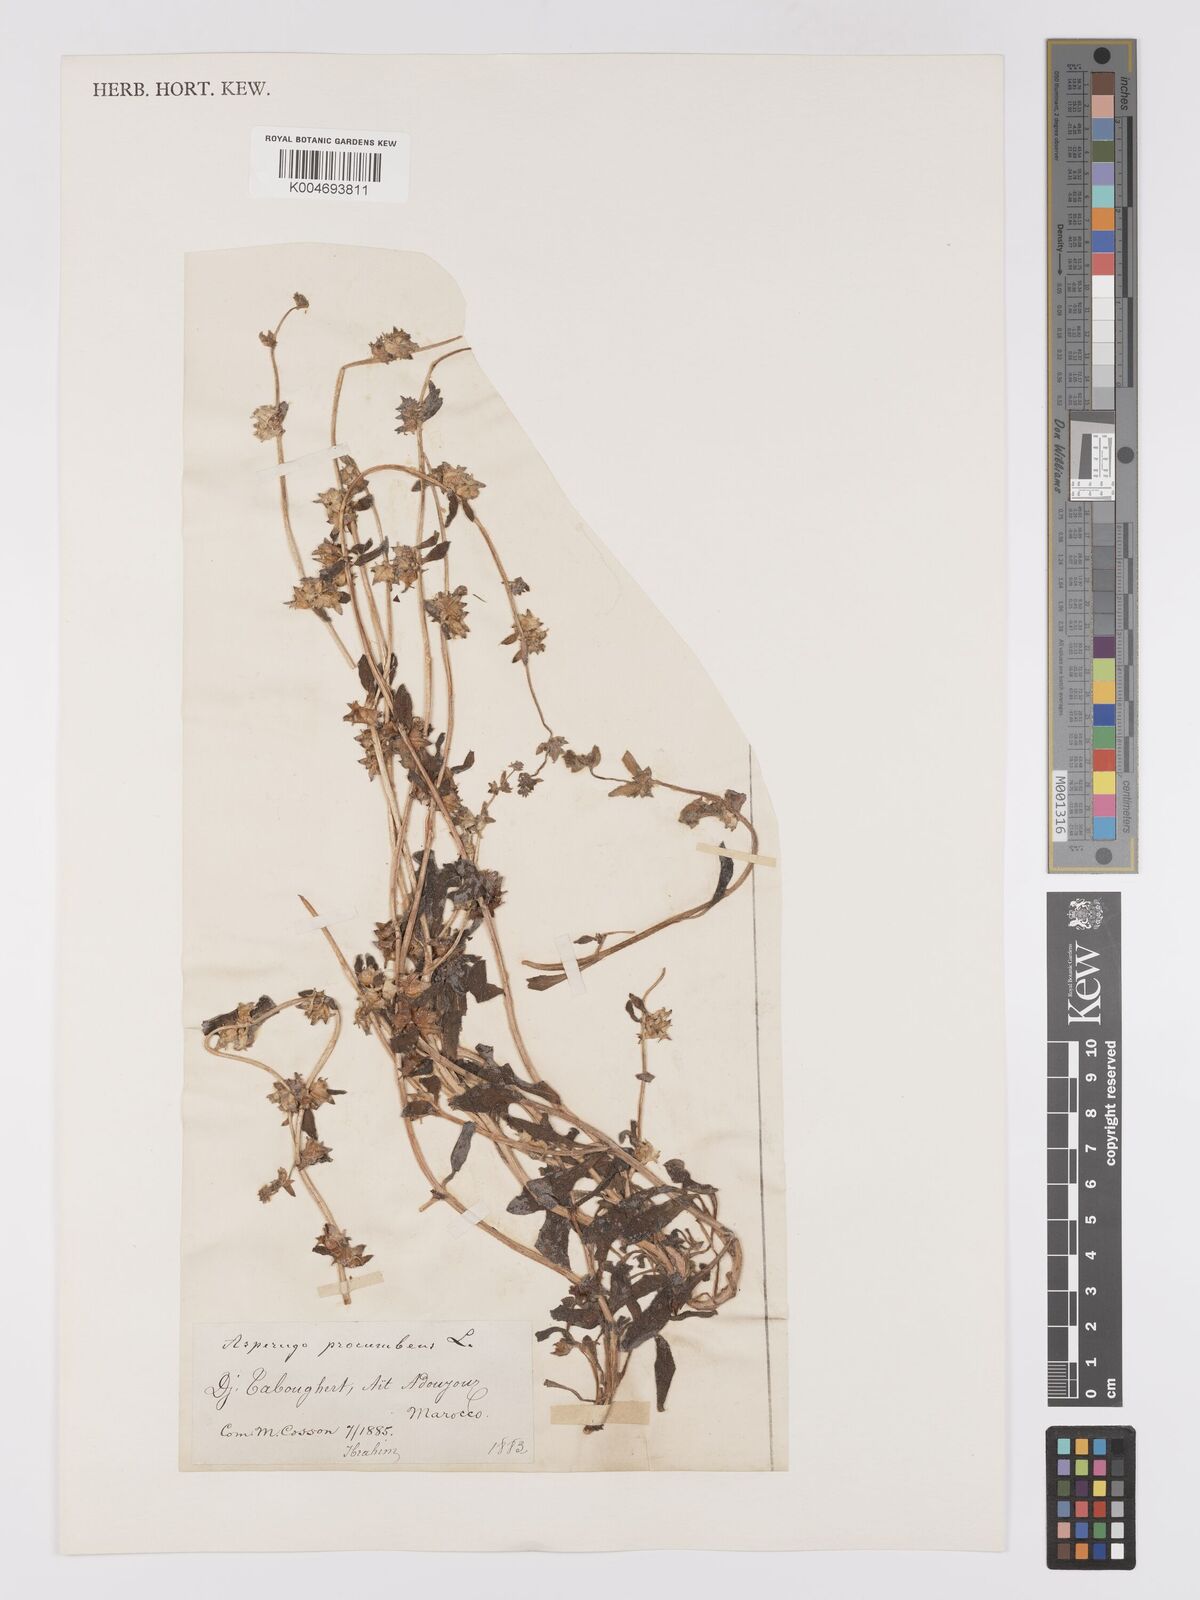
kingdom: Plantae
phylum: Tracheophyta
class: Magnoliopsida
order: Boraginales
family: Boraginaceae
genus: Asperugo
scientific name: Asperugo procumbens
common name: Madwort
